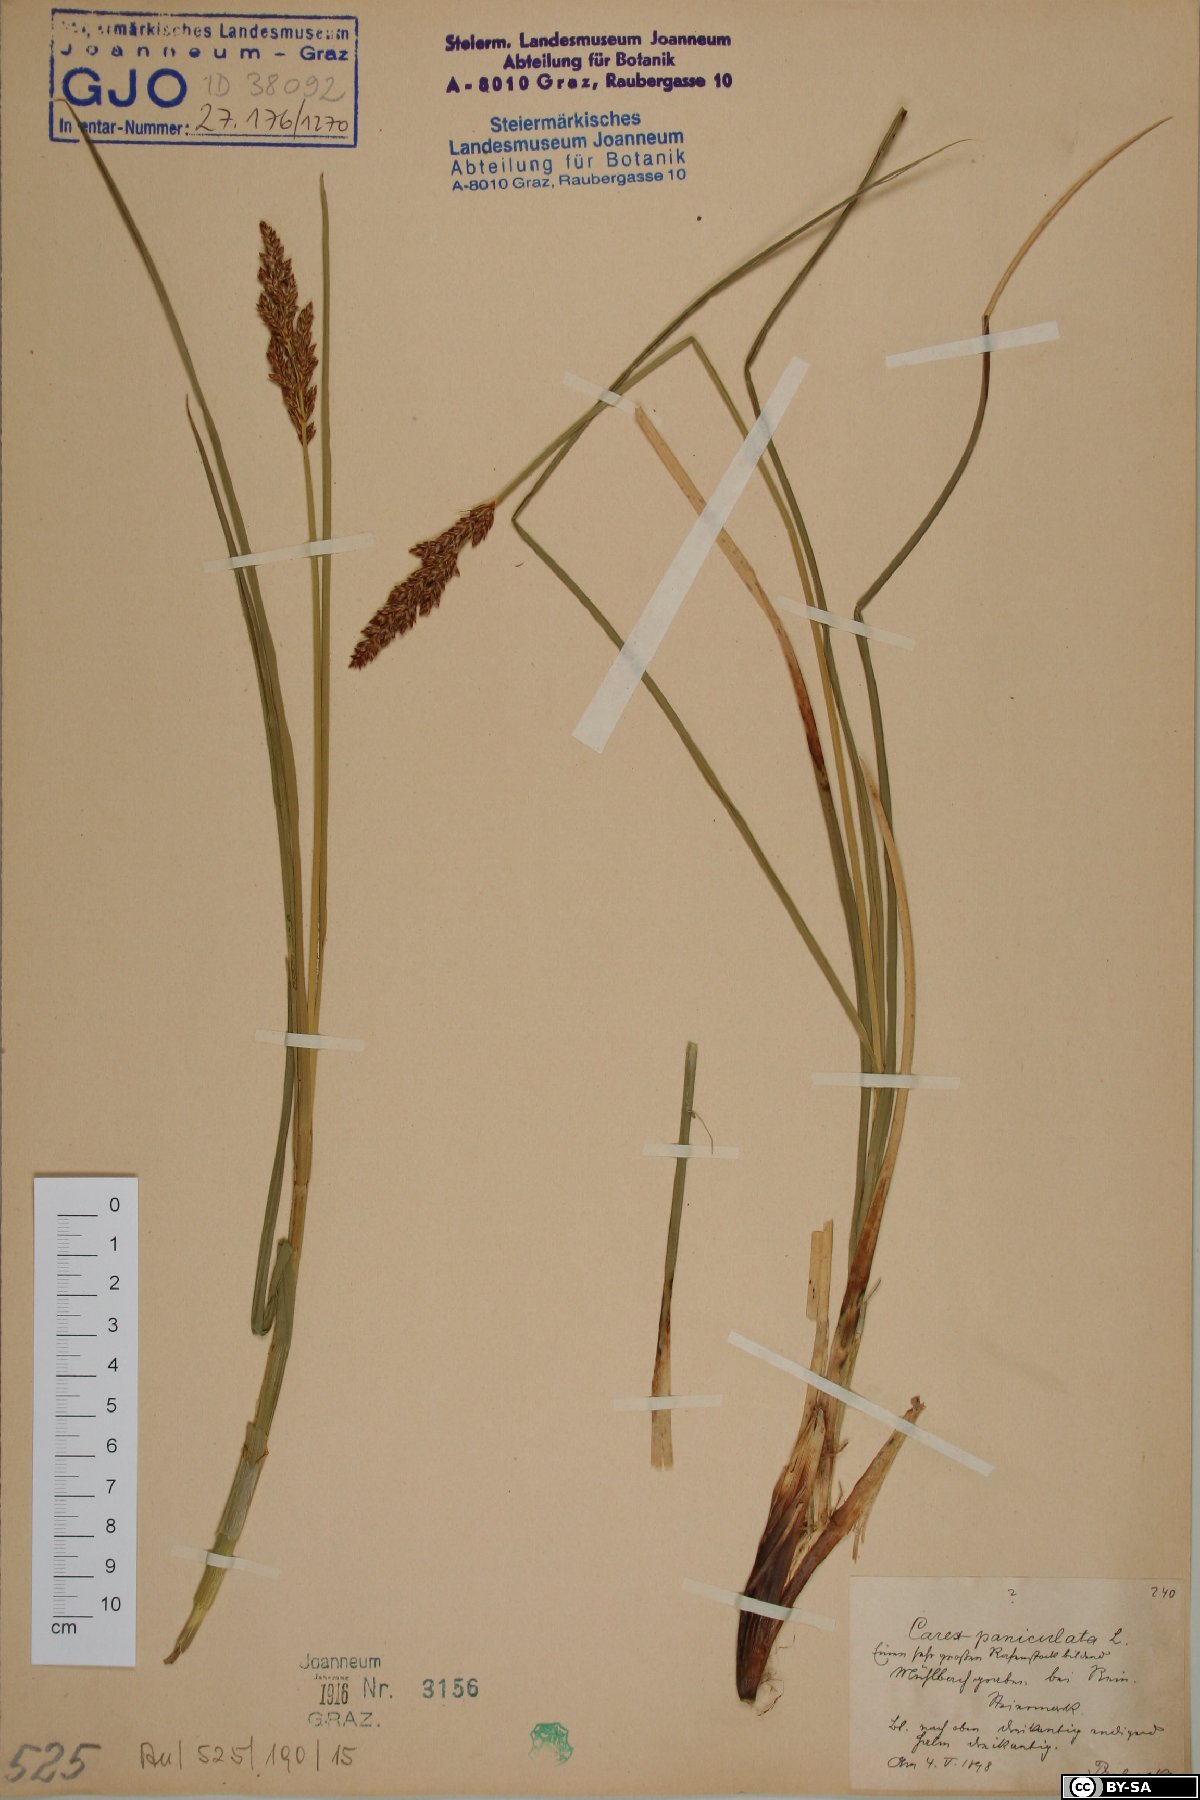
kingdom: Plantae
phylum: Tracheophyta
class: Liliopsida
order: Poales
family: Cyperaceae
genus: Carex
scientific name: Carex paniculata
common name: Greater tussock-sedge
